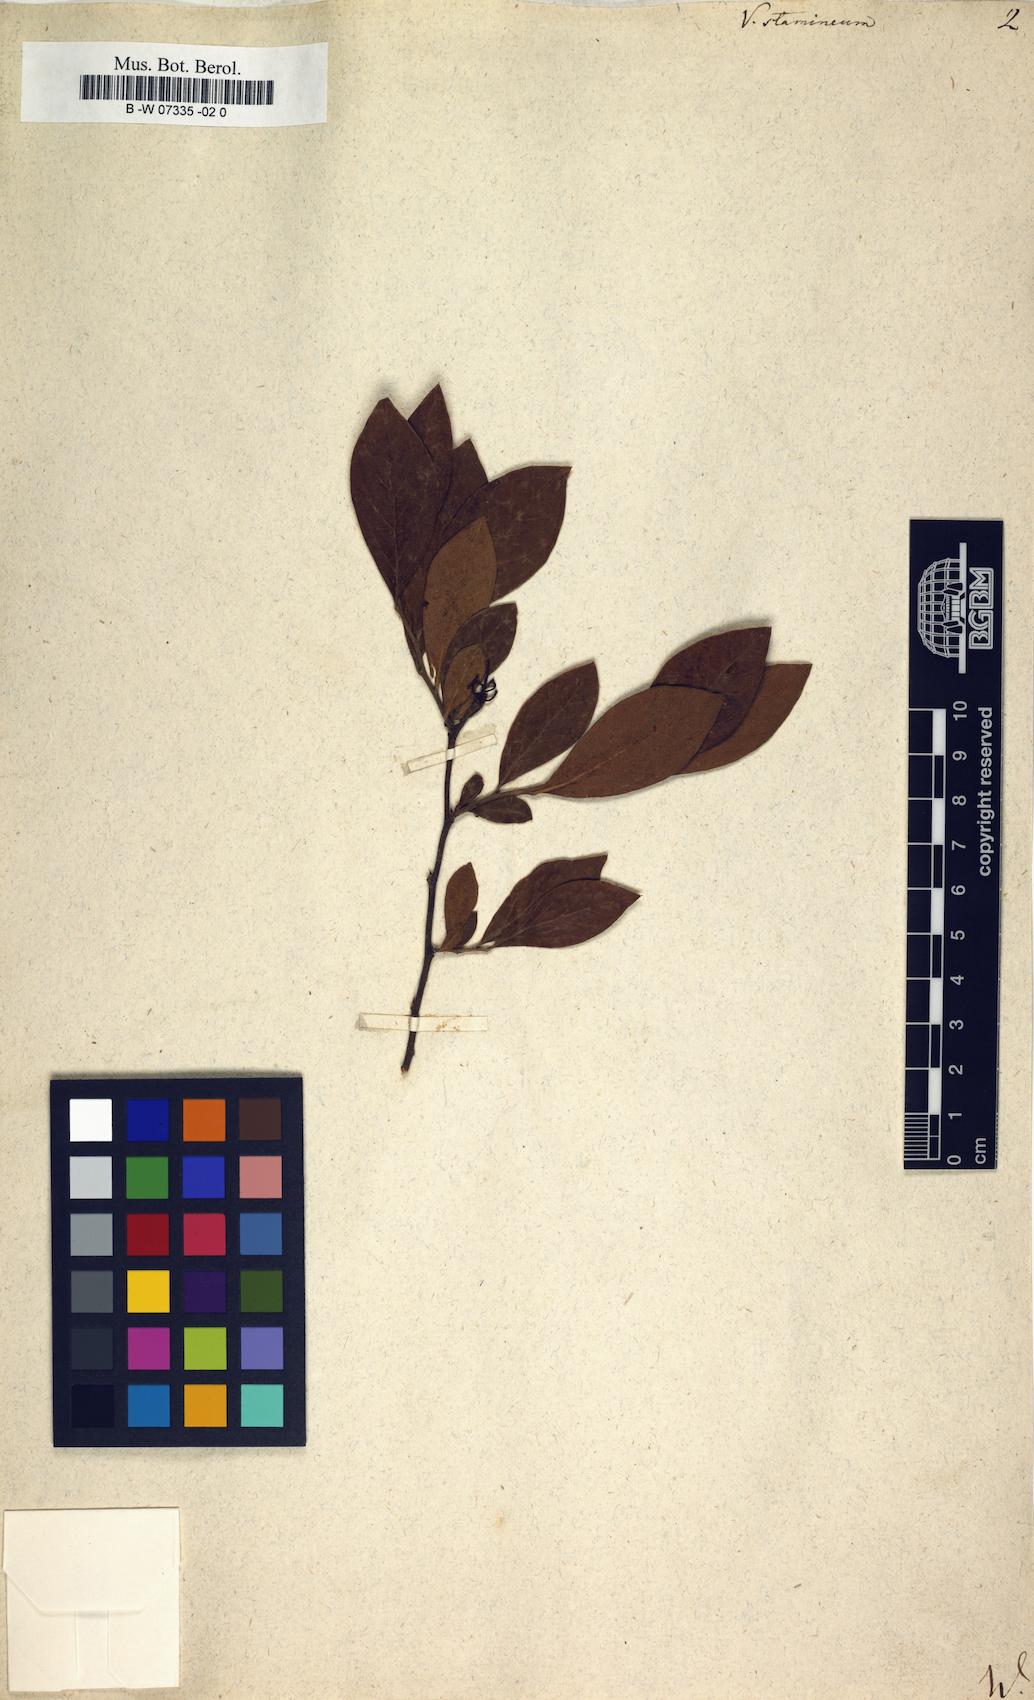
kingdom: Plantae
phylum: Tracheophyta
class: Magnoliopsida
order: Ericales
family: Ericaceae
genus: Vaccinium
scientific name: Vaccinium stamineum
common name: Deerberry
